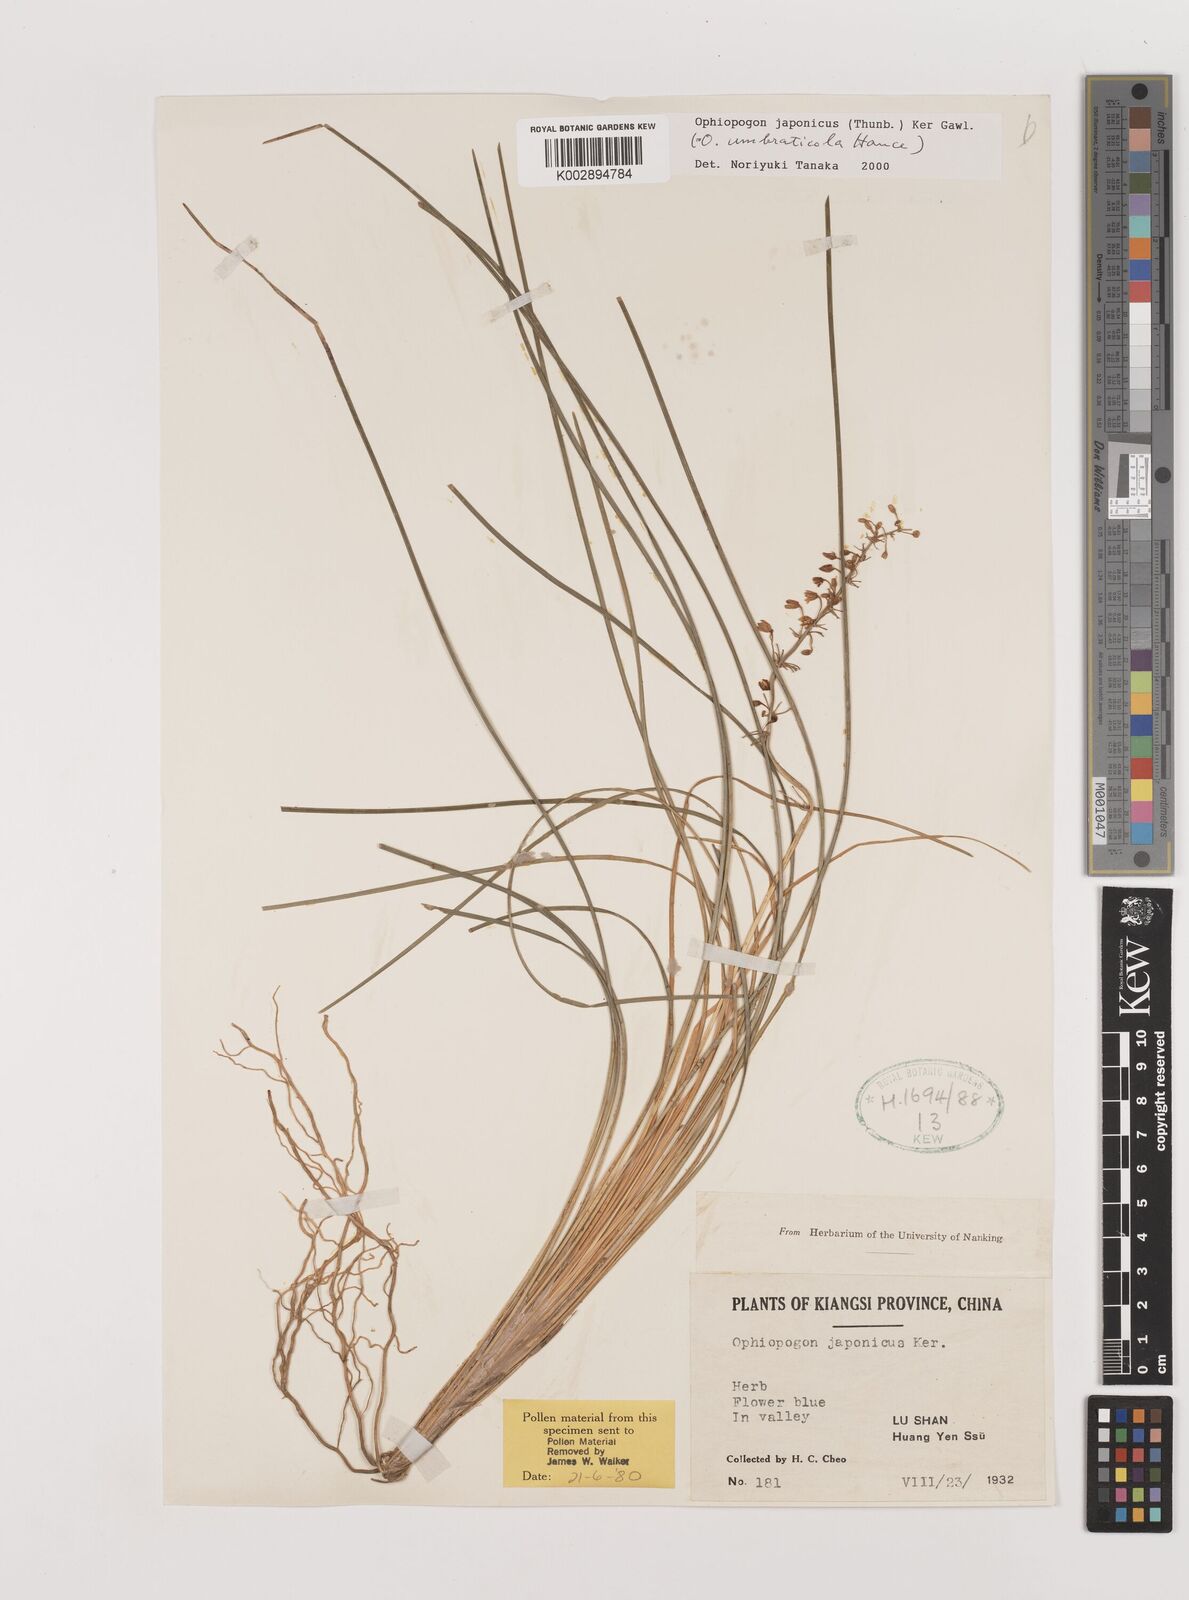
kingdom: Plantae
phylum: Tracheophyta
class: Liliopsida
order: Asparagales
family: Asparagaceae
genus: Ophiopogon
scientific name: Ophiopogon japonicus
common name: Dwarf lilyturf
